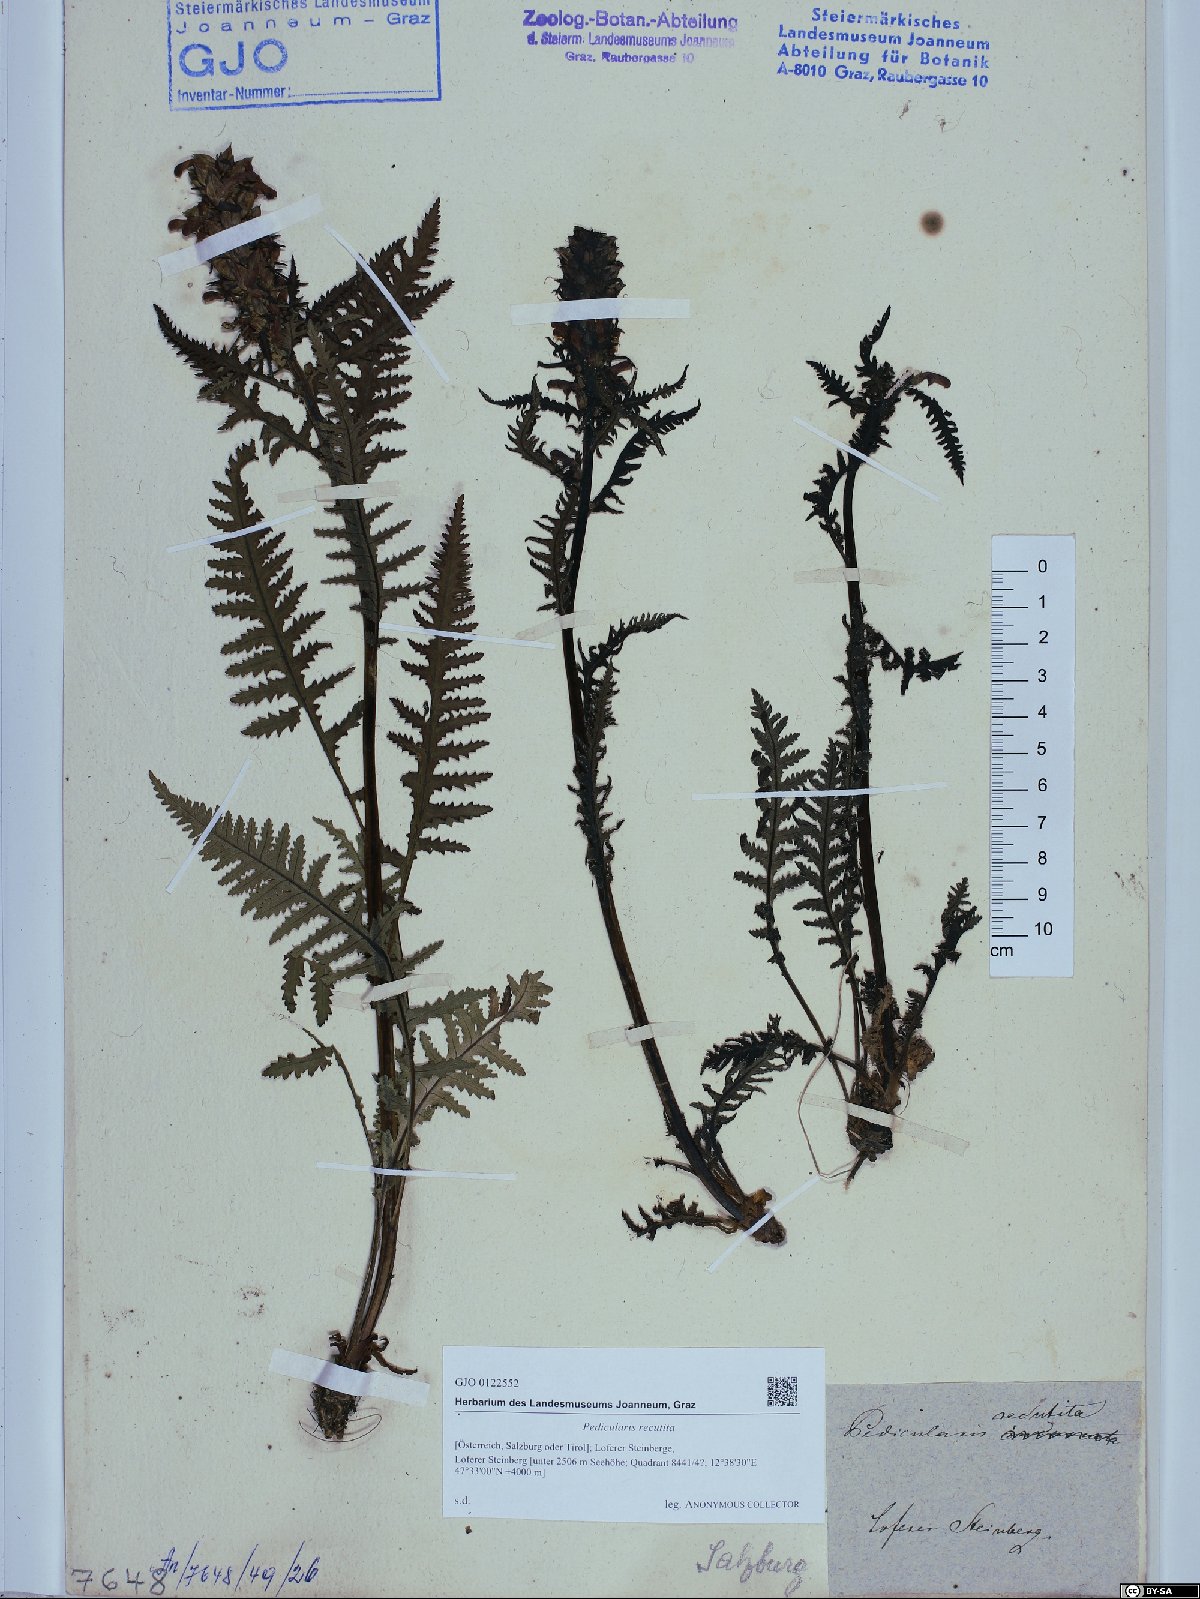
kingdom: Plantae
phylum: Tracheophyta
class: Magnoliopsida
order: Lamiales
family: Orobanchaceae
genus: Pedicularis
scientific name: Pedicularis recutita
